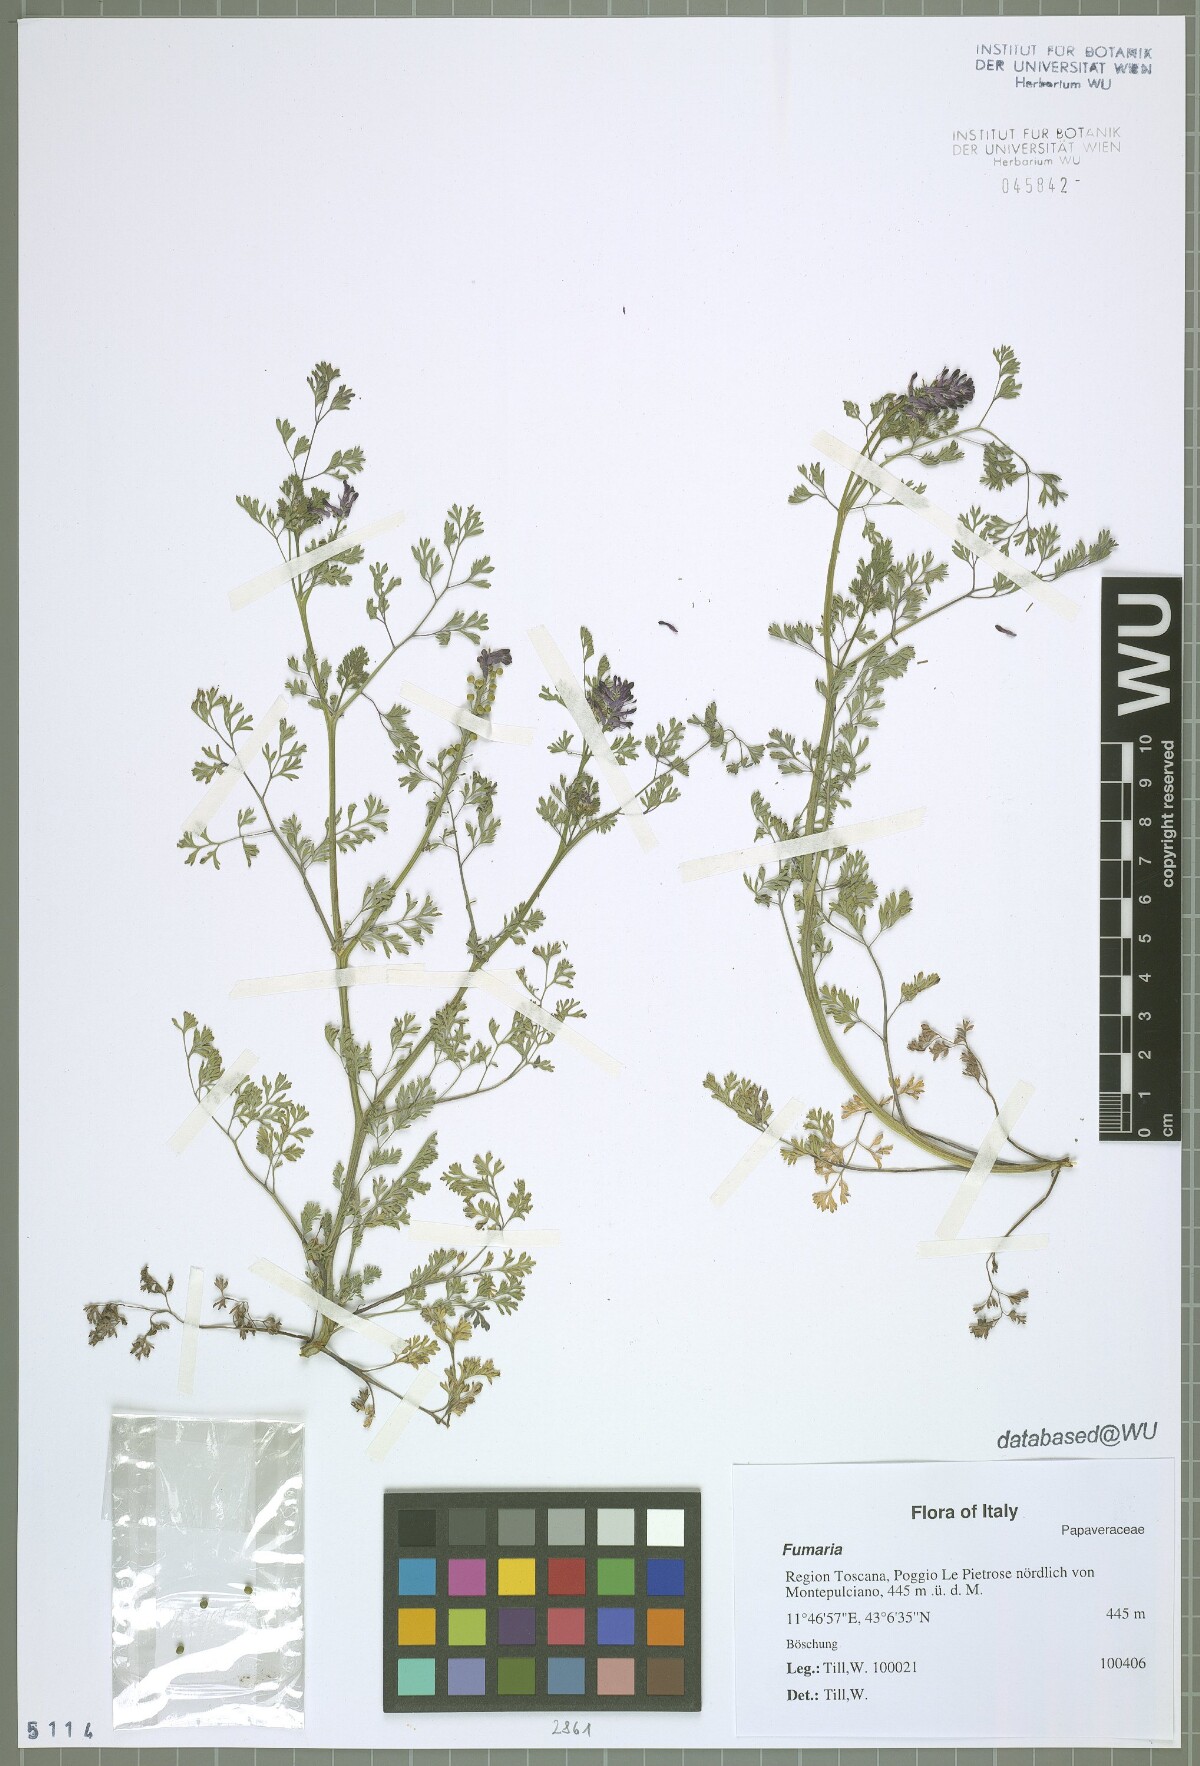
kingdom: Plantae
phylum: Tracheophyta
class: Magnoliopsida
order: Ranunculales
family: Papaveraceae
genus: Fumaria
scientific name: Fumaria
